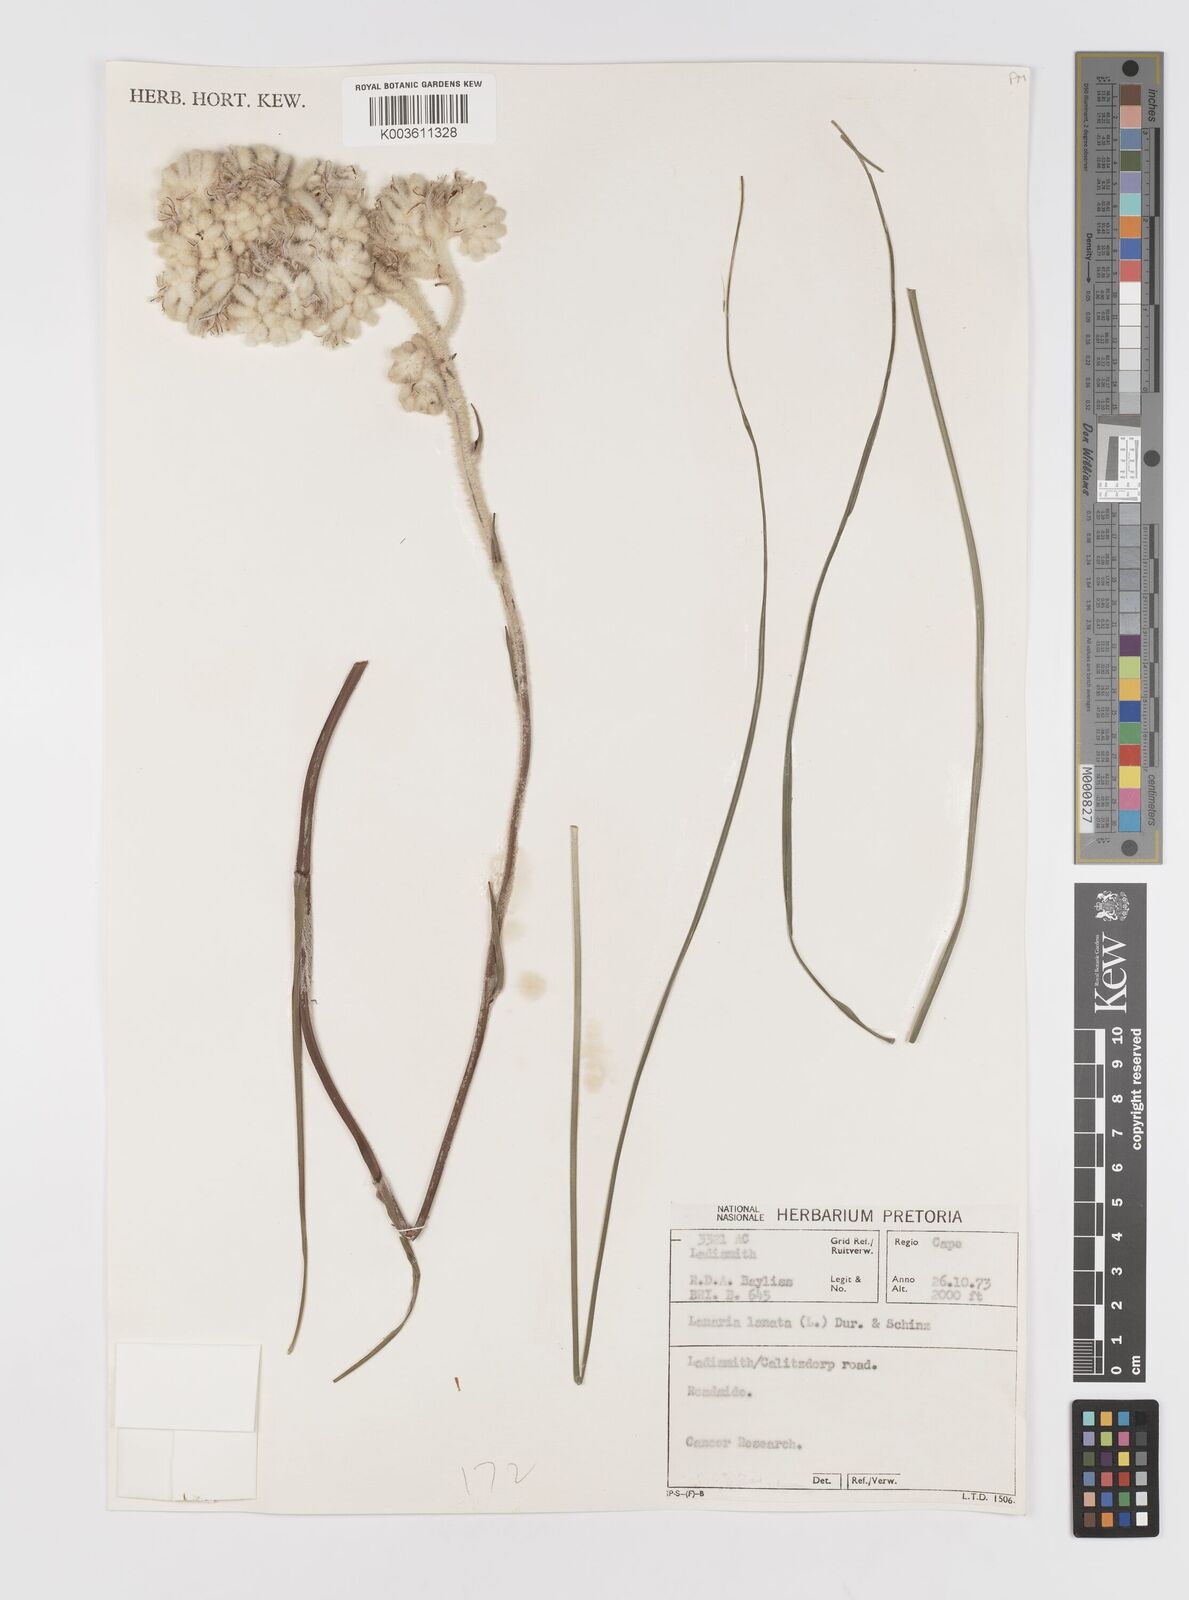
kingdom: Plantae
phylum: Tracheophyta
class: Liliopsida
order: Asparagales
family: Lanariaceae
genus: Lanaria
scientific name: Lanaria lanata
